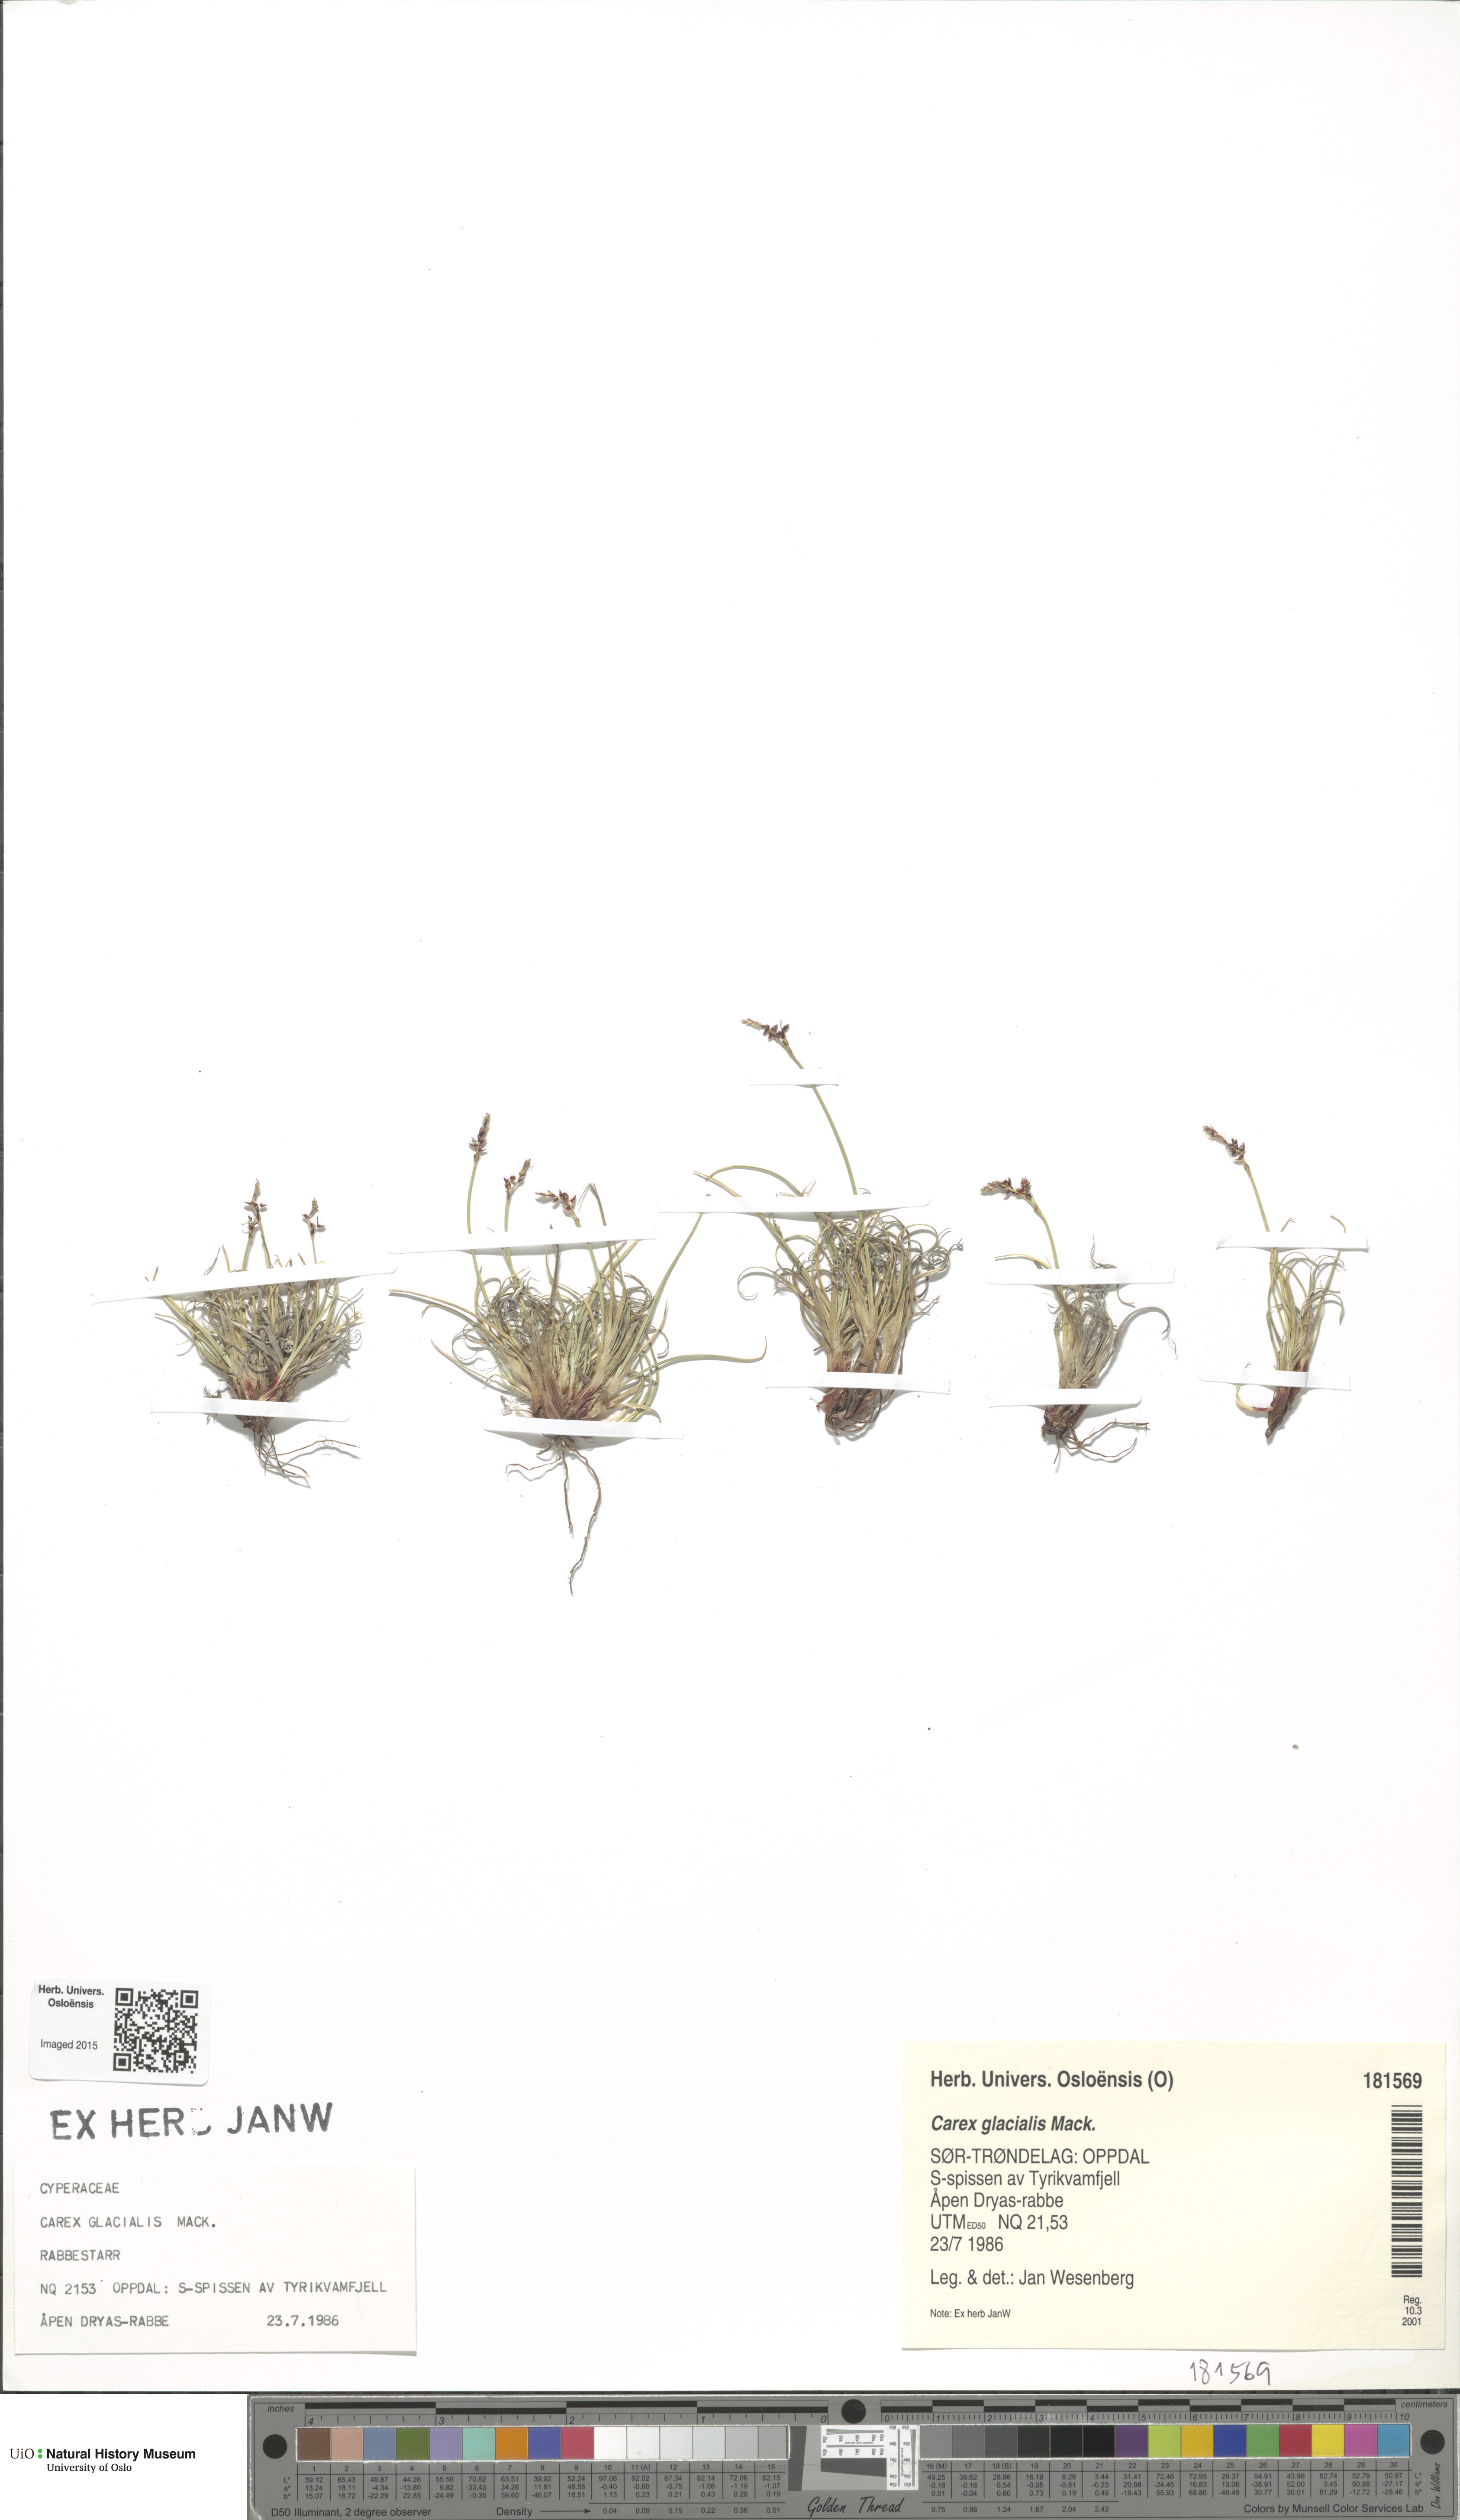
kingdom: Plantae
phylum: Tracheophyta
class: Liliopsida
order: Poales
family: Cyperaceae
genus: Carex
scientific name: Carex glacialis
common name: Newfoundland sedge
